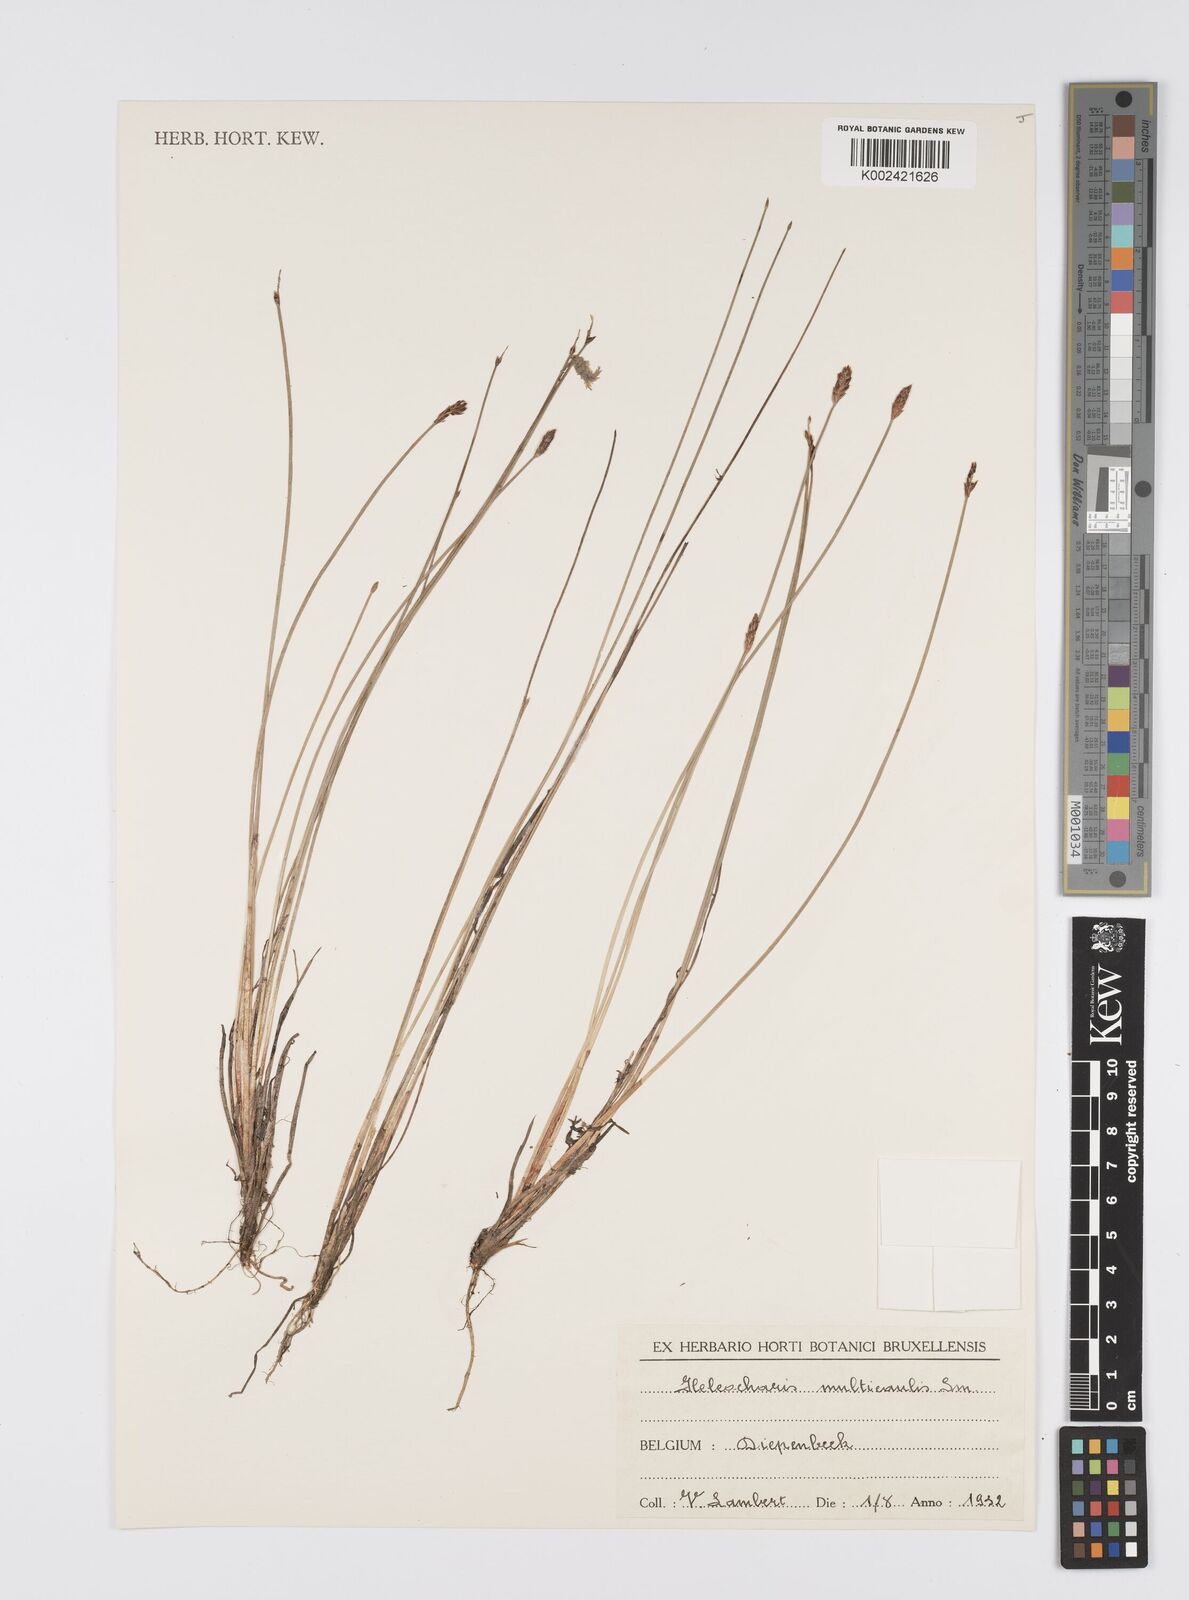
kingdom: Plantae
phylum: Tracheophyta
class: Liliopsida
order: Poales
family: Cyperaceae
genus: Eleocharis
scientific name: Eleocharis multicaulis
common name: Many-stalked spike-rush
